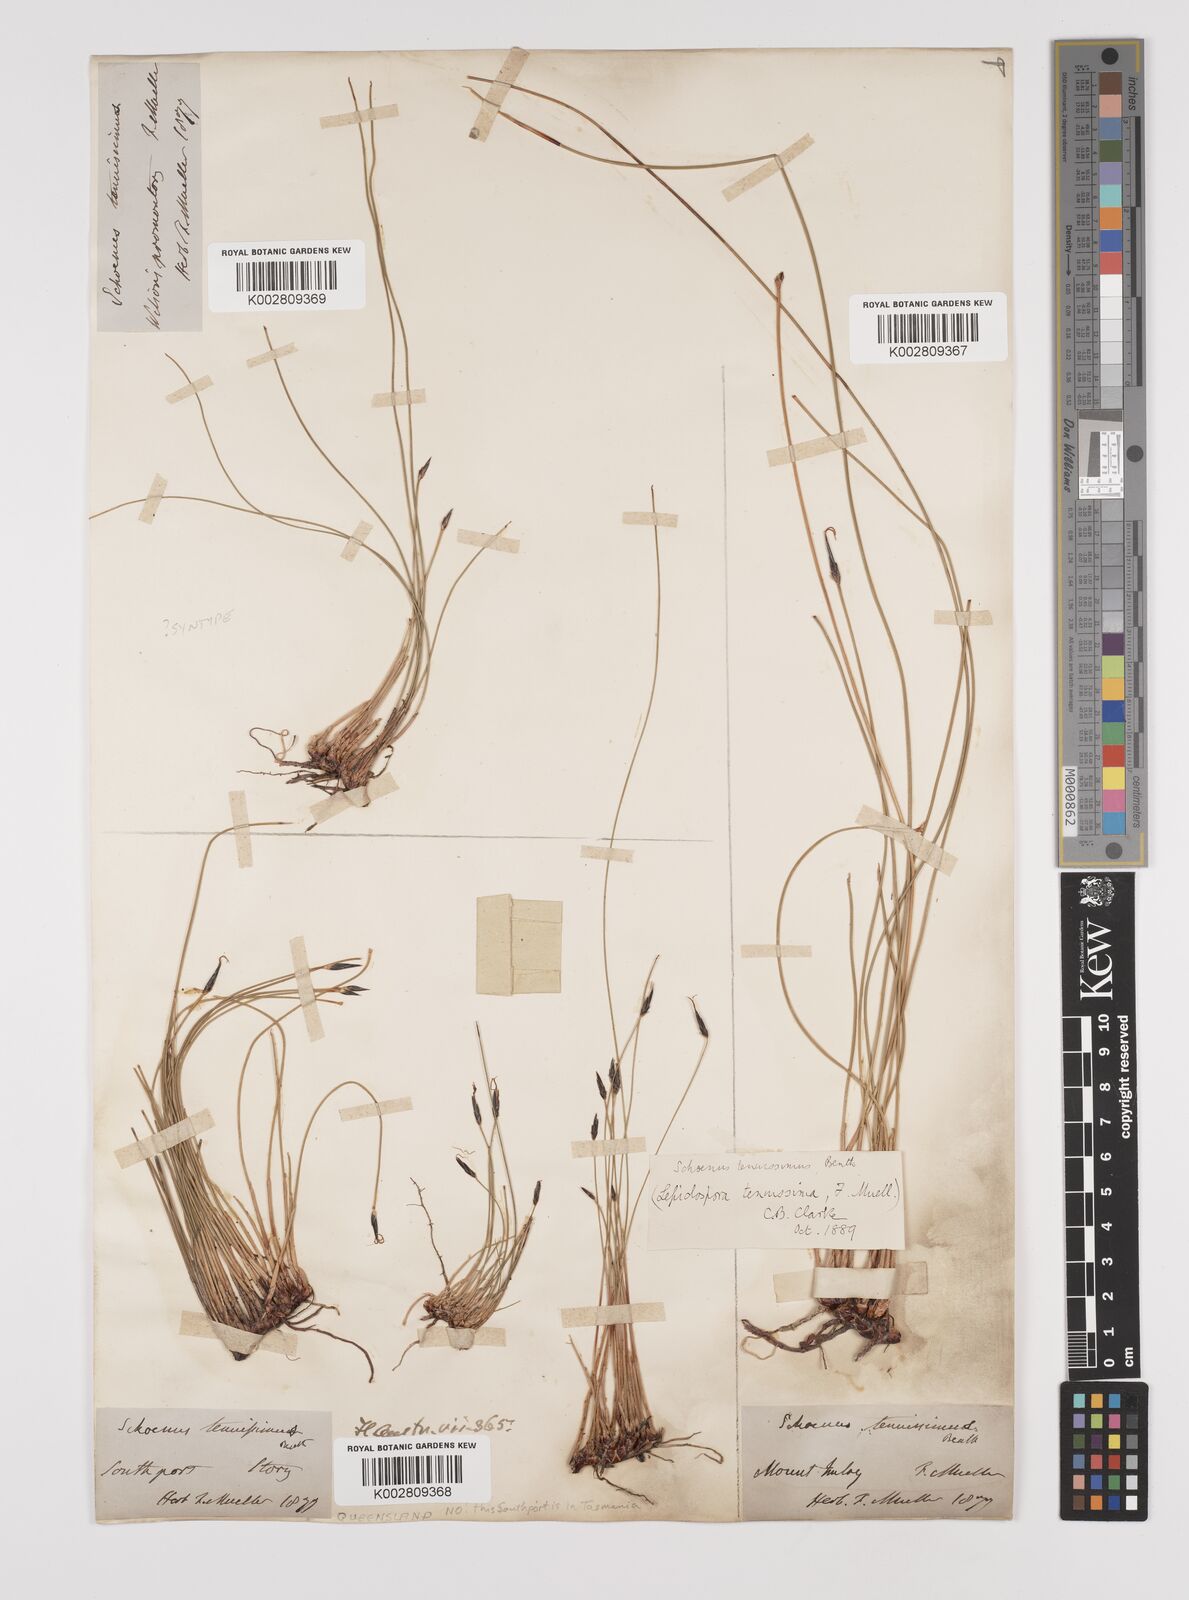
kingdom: Plantae
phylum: Tracheophyta
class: Liliopsida
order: Poales
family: Cyperaceae
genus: Schoenus
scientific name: Schoenus tenuissimus
